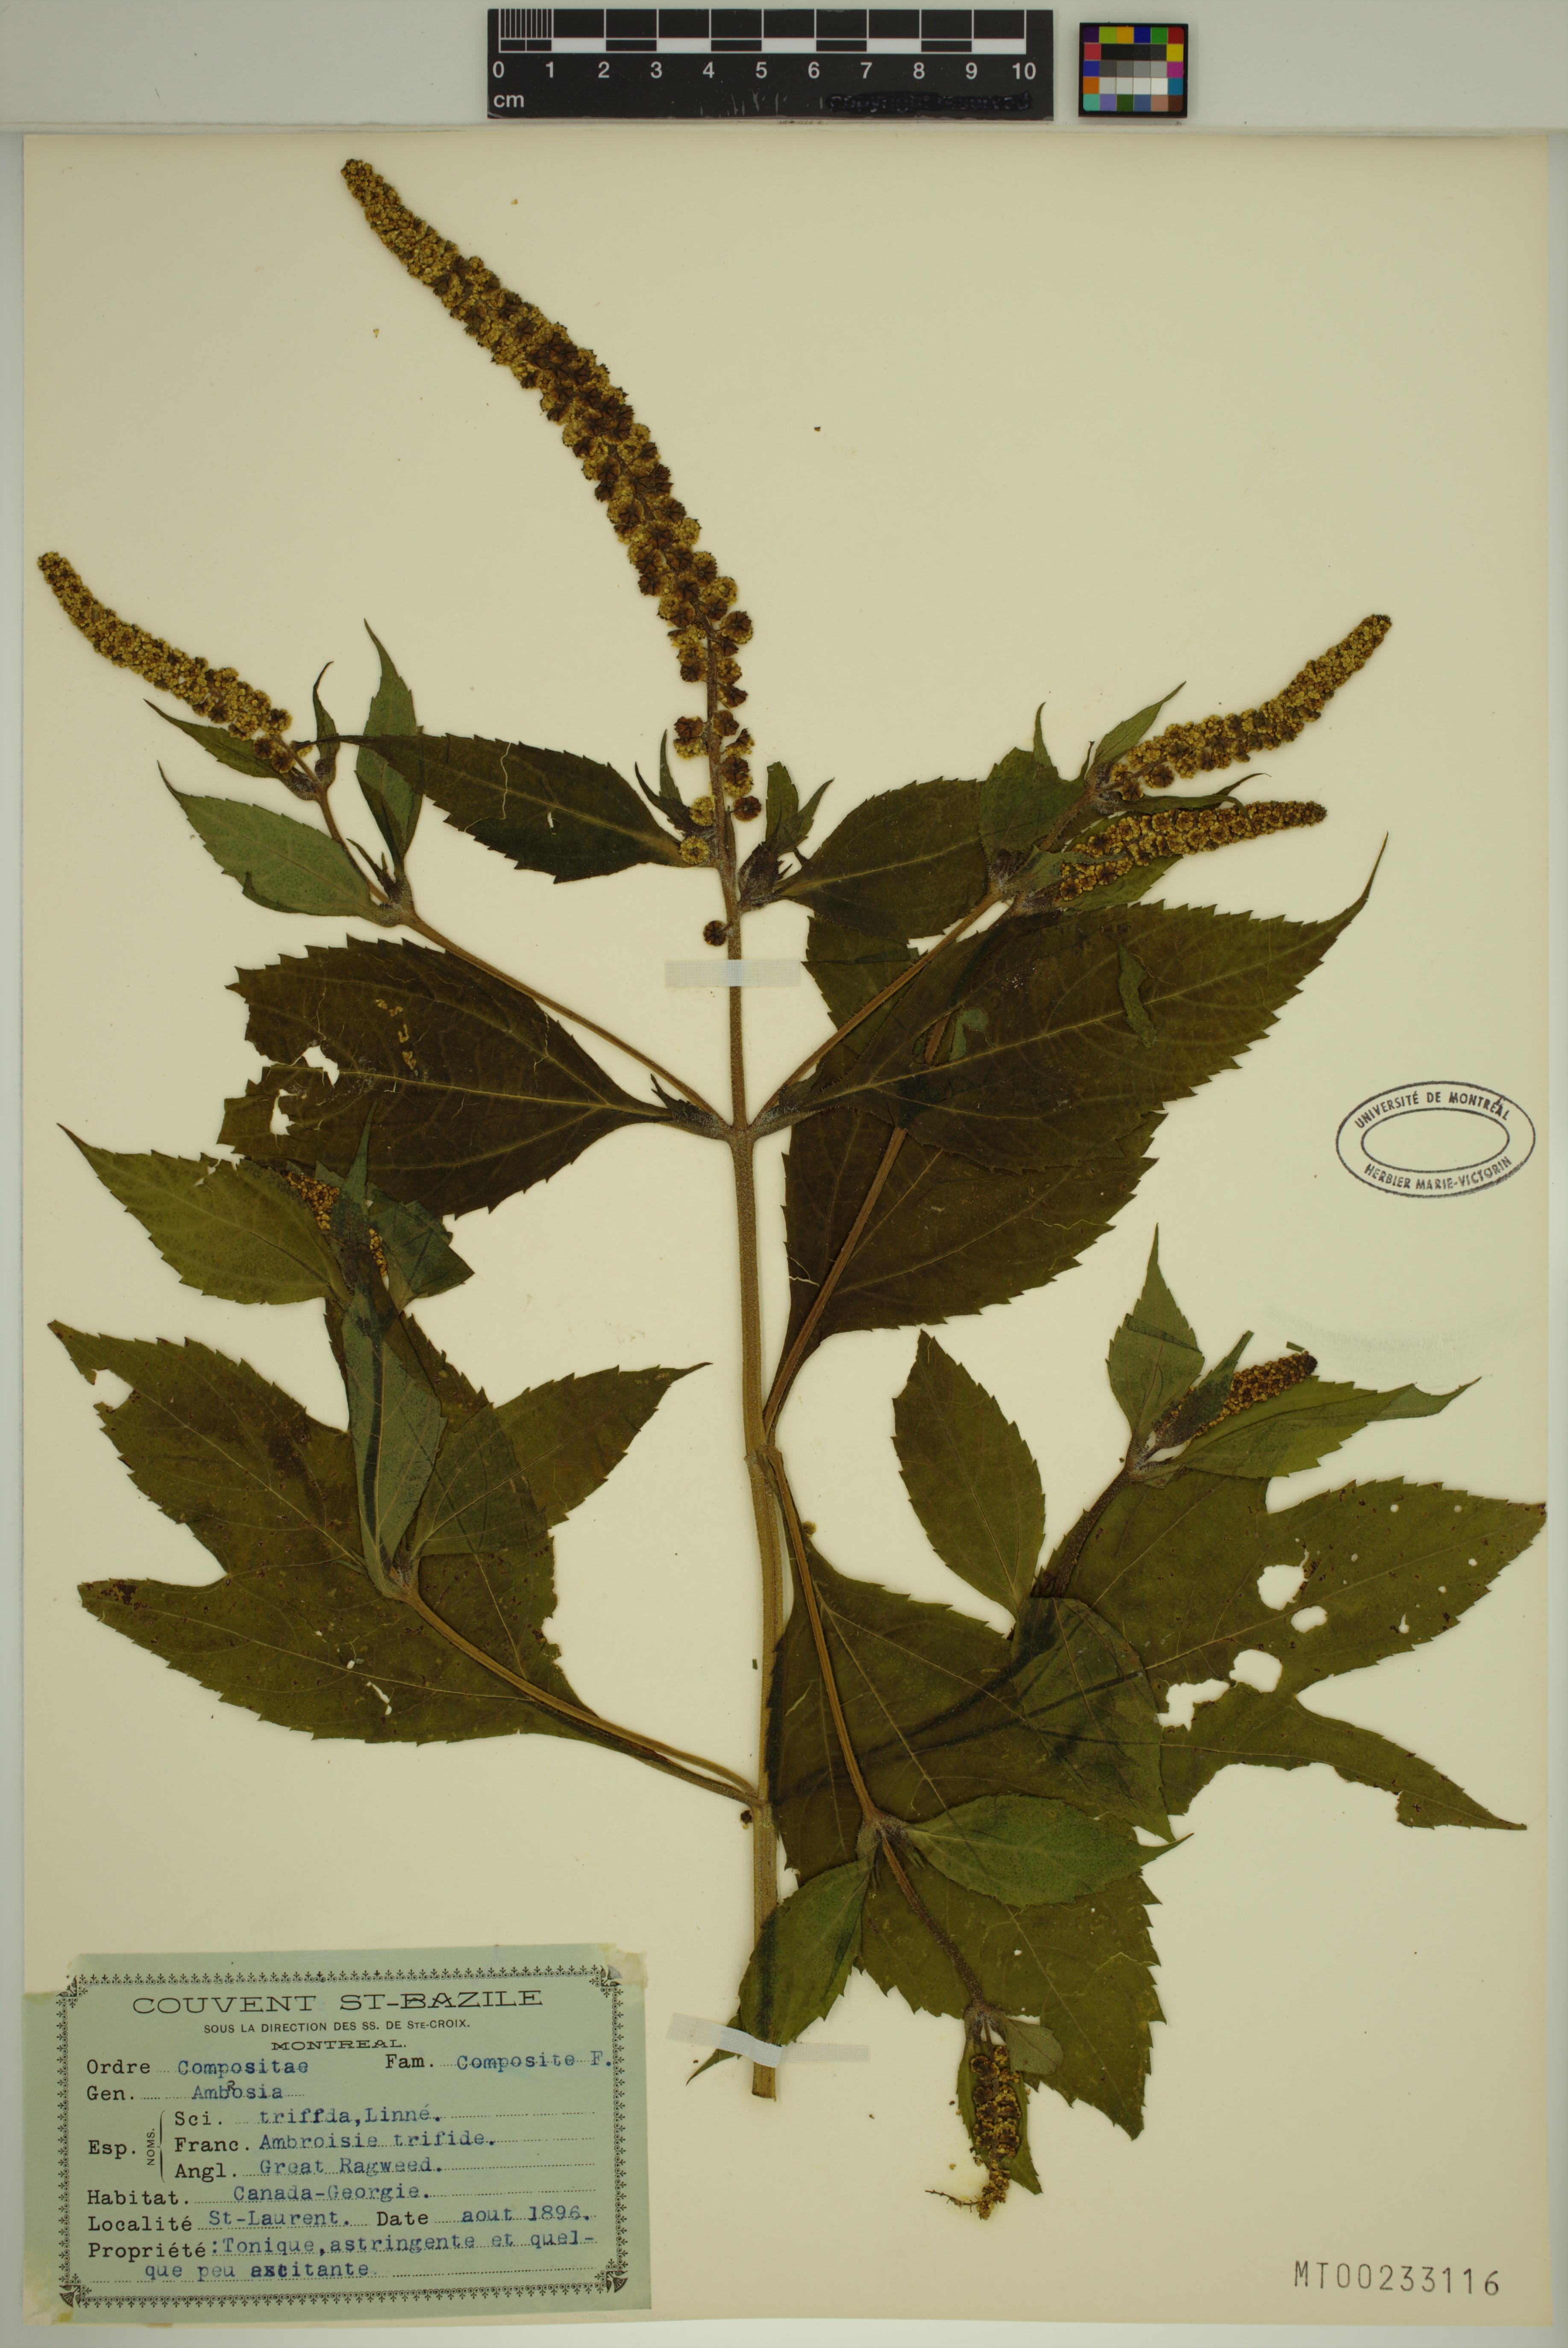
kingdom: Plantae
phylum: Tracheophyta
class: Magnoliopsida
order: Asterales
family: Asteraceae
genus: Ambrosia
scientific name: Ambrosia trifida
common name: Giant ragweed
